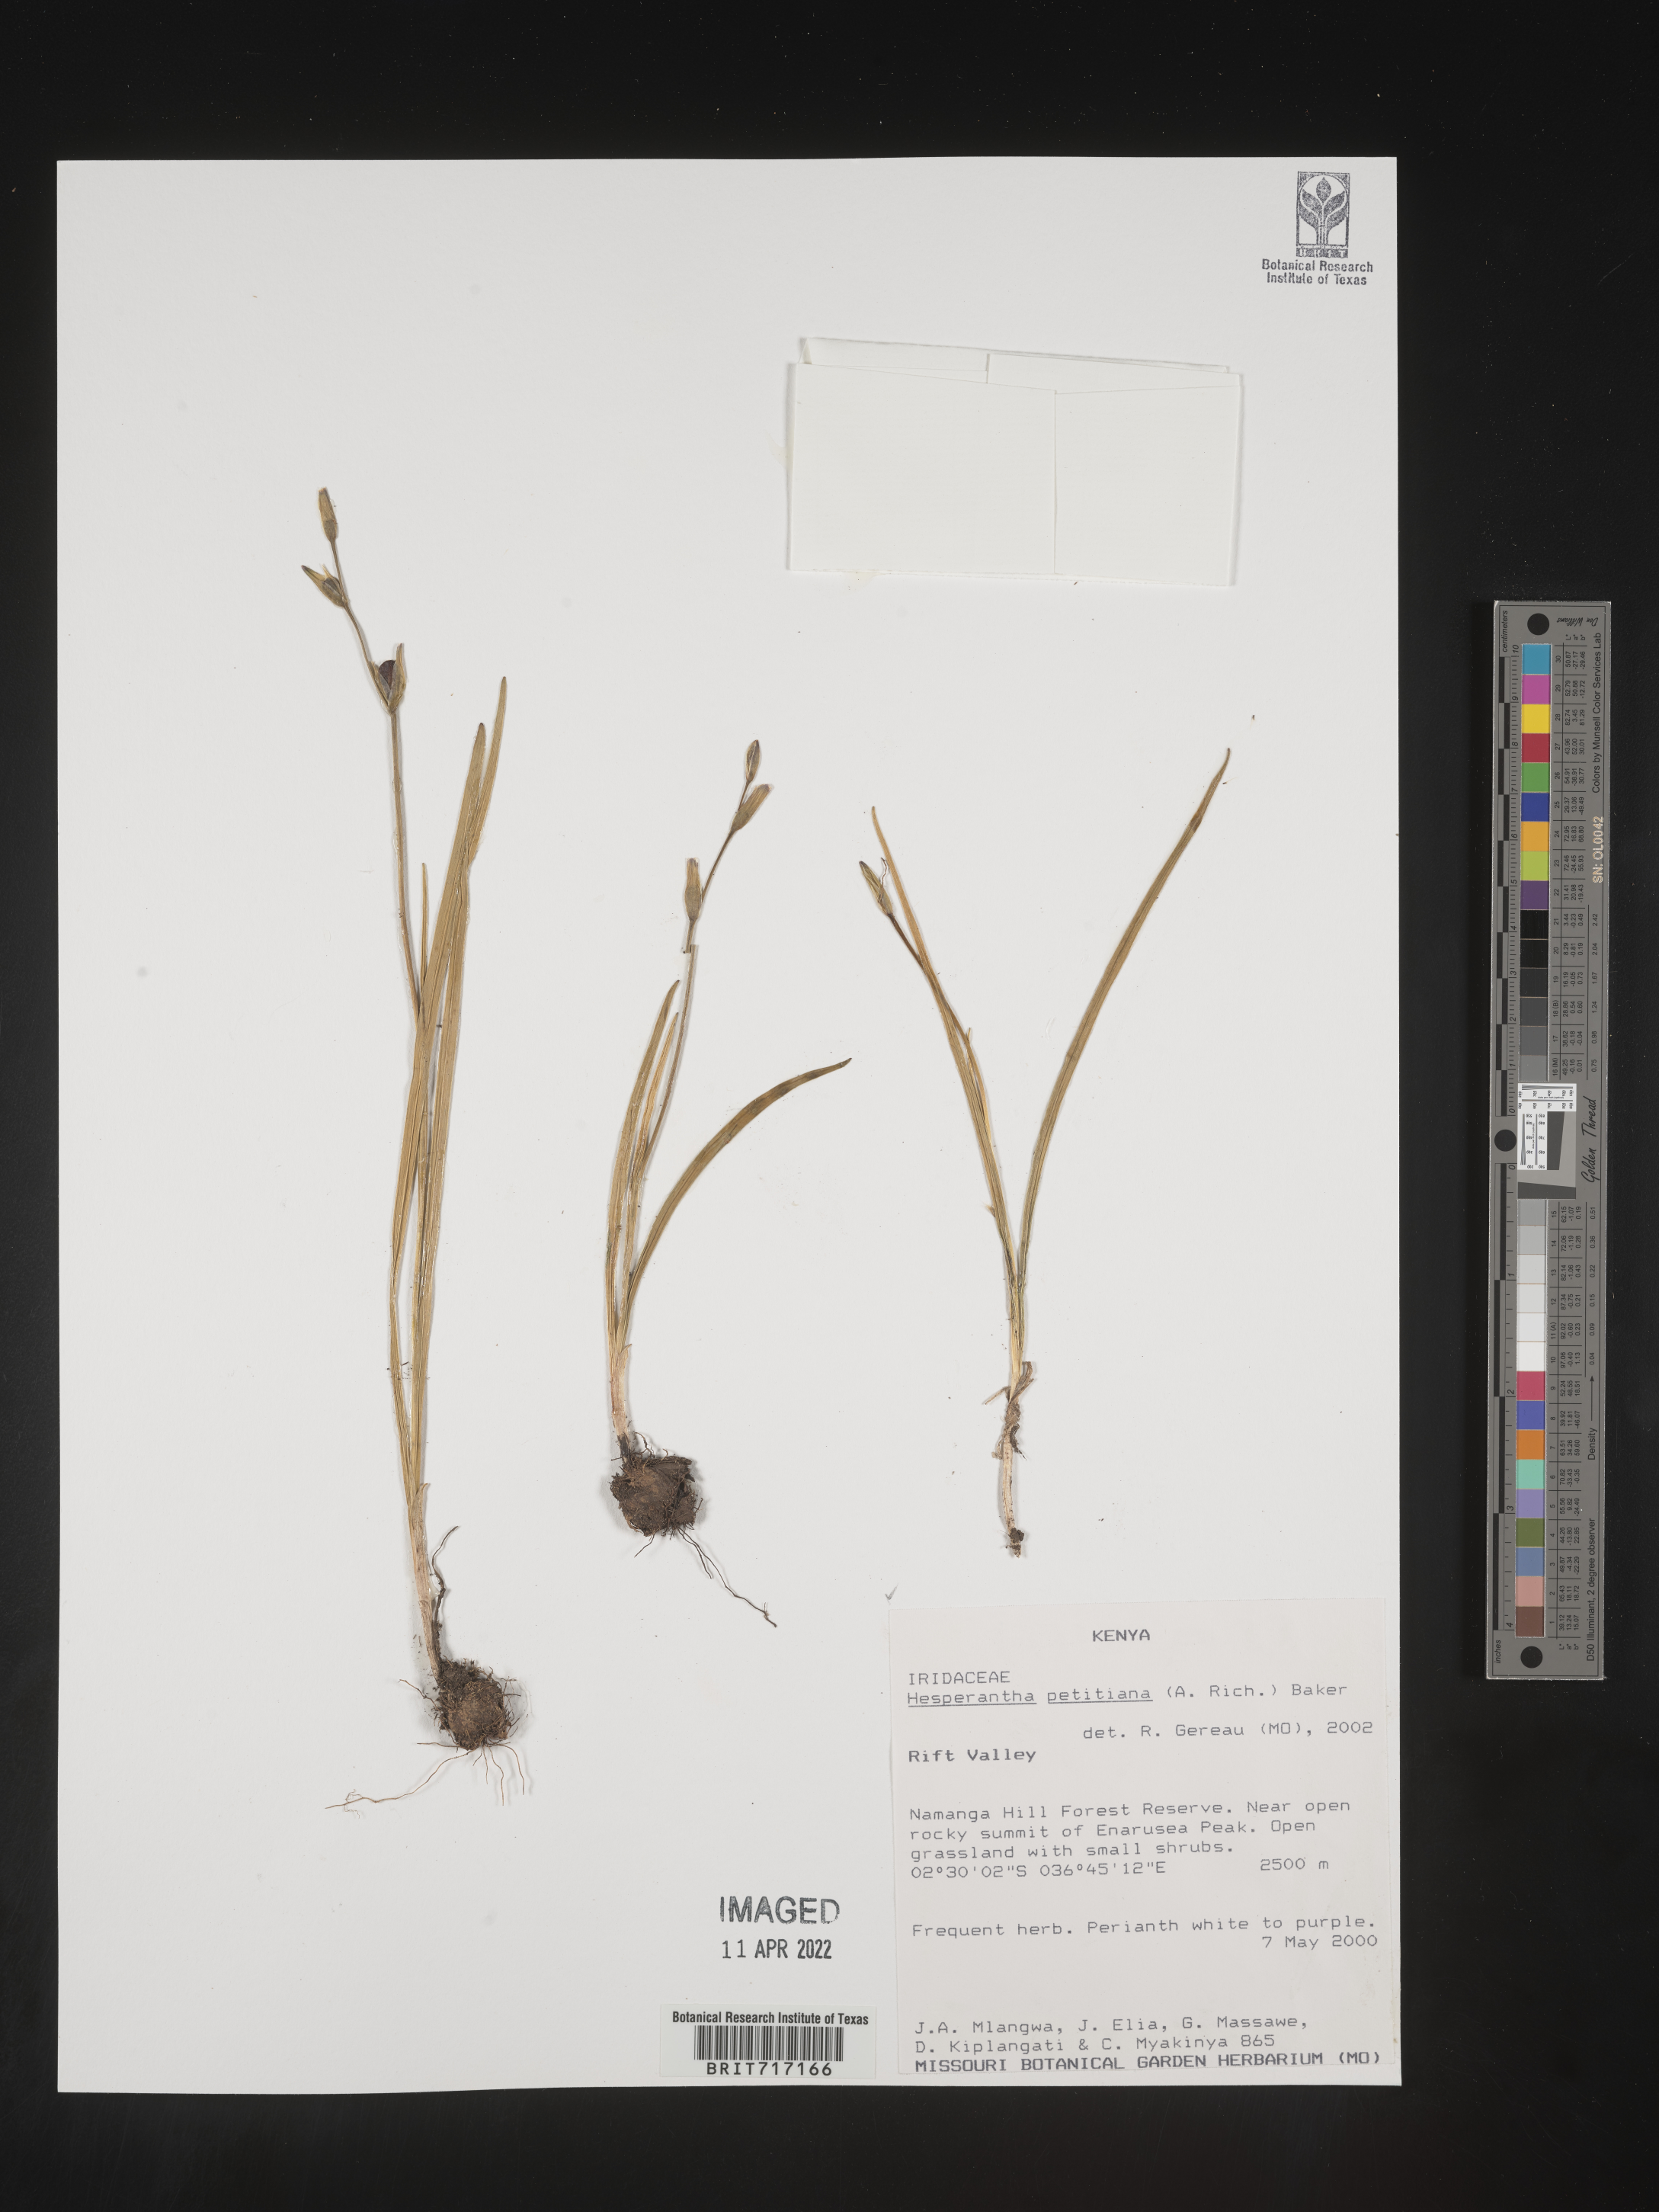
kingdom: Plantae
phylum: Tracheophyta
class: Liliopsida
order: Asparagales
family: Iridaceae
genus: Hesperantha
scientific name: Hesperantha
